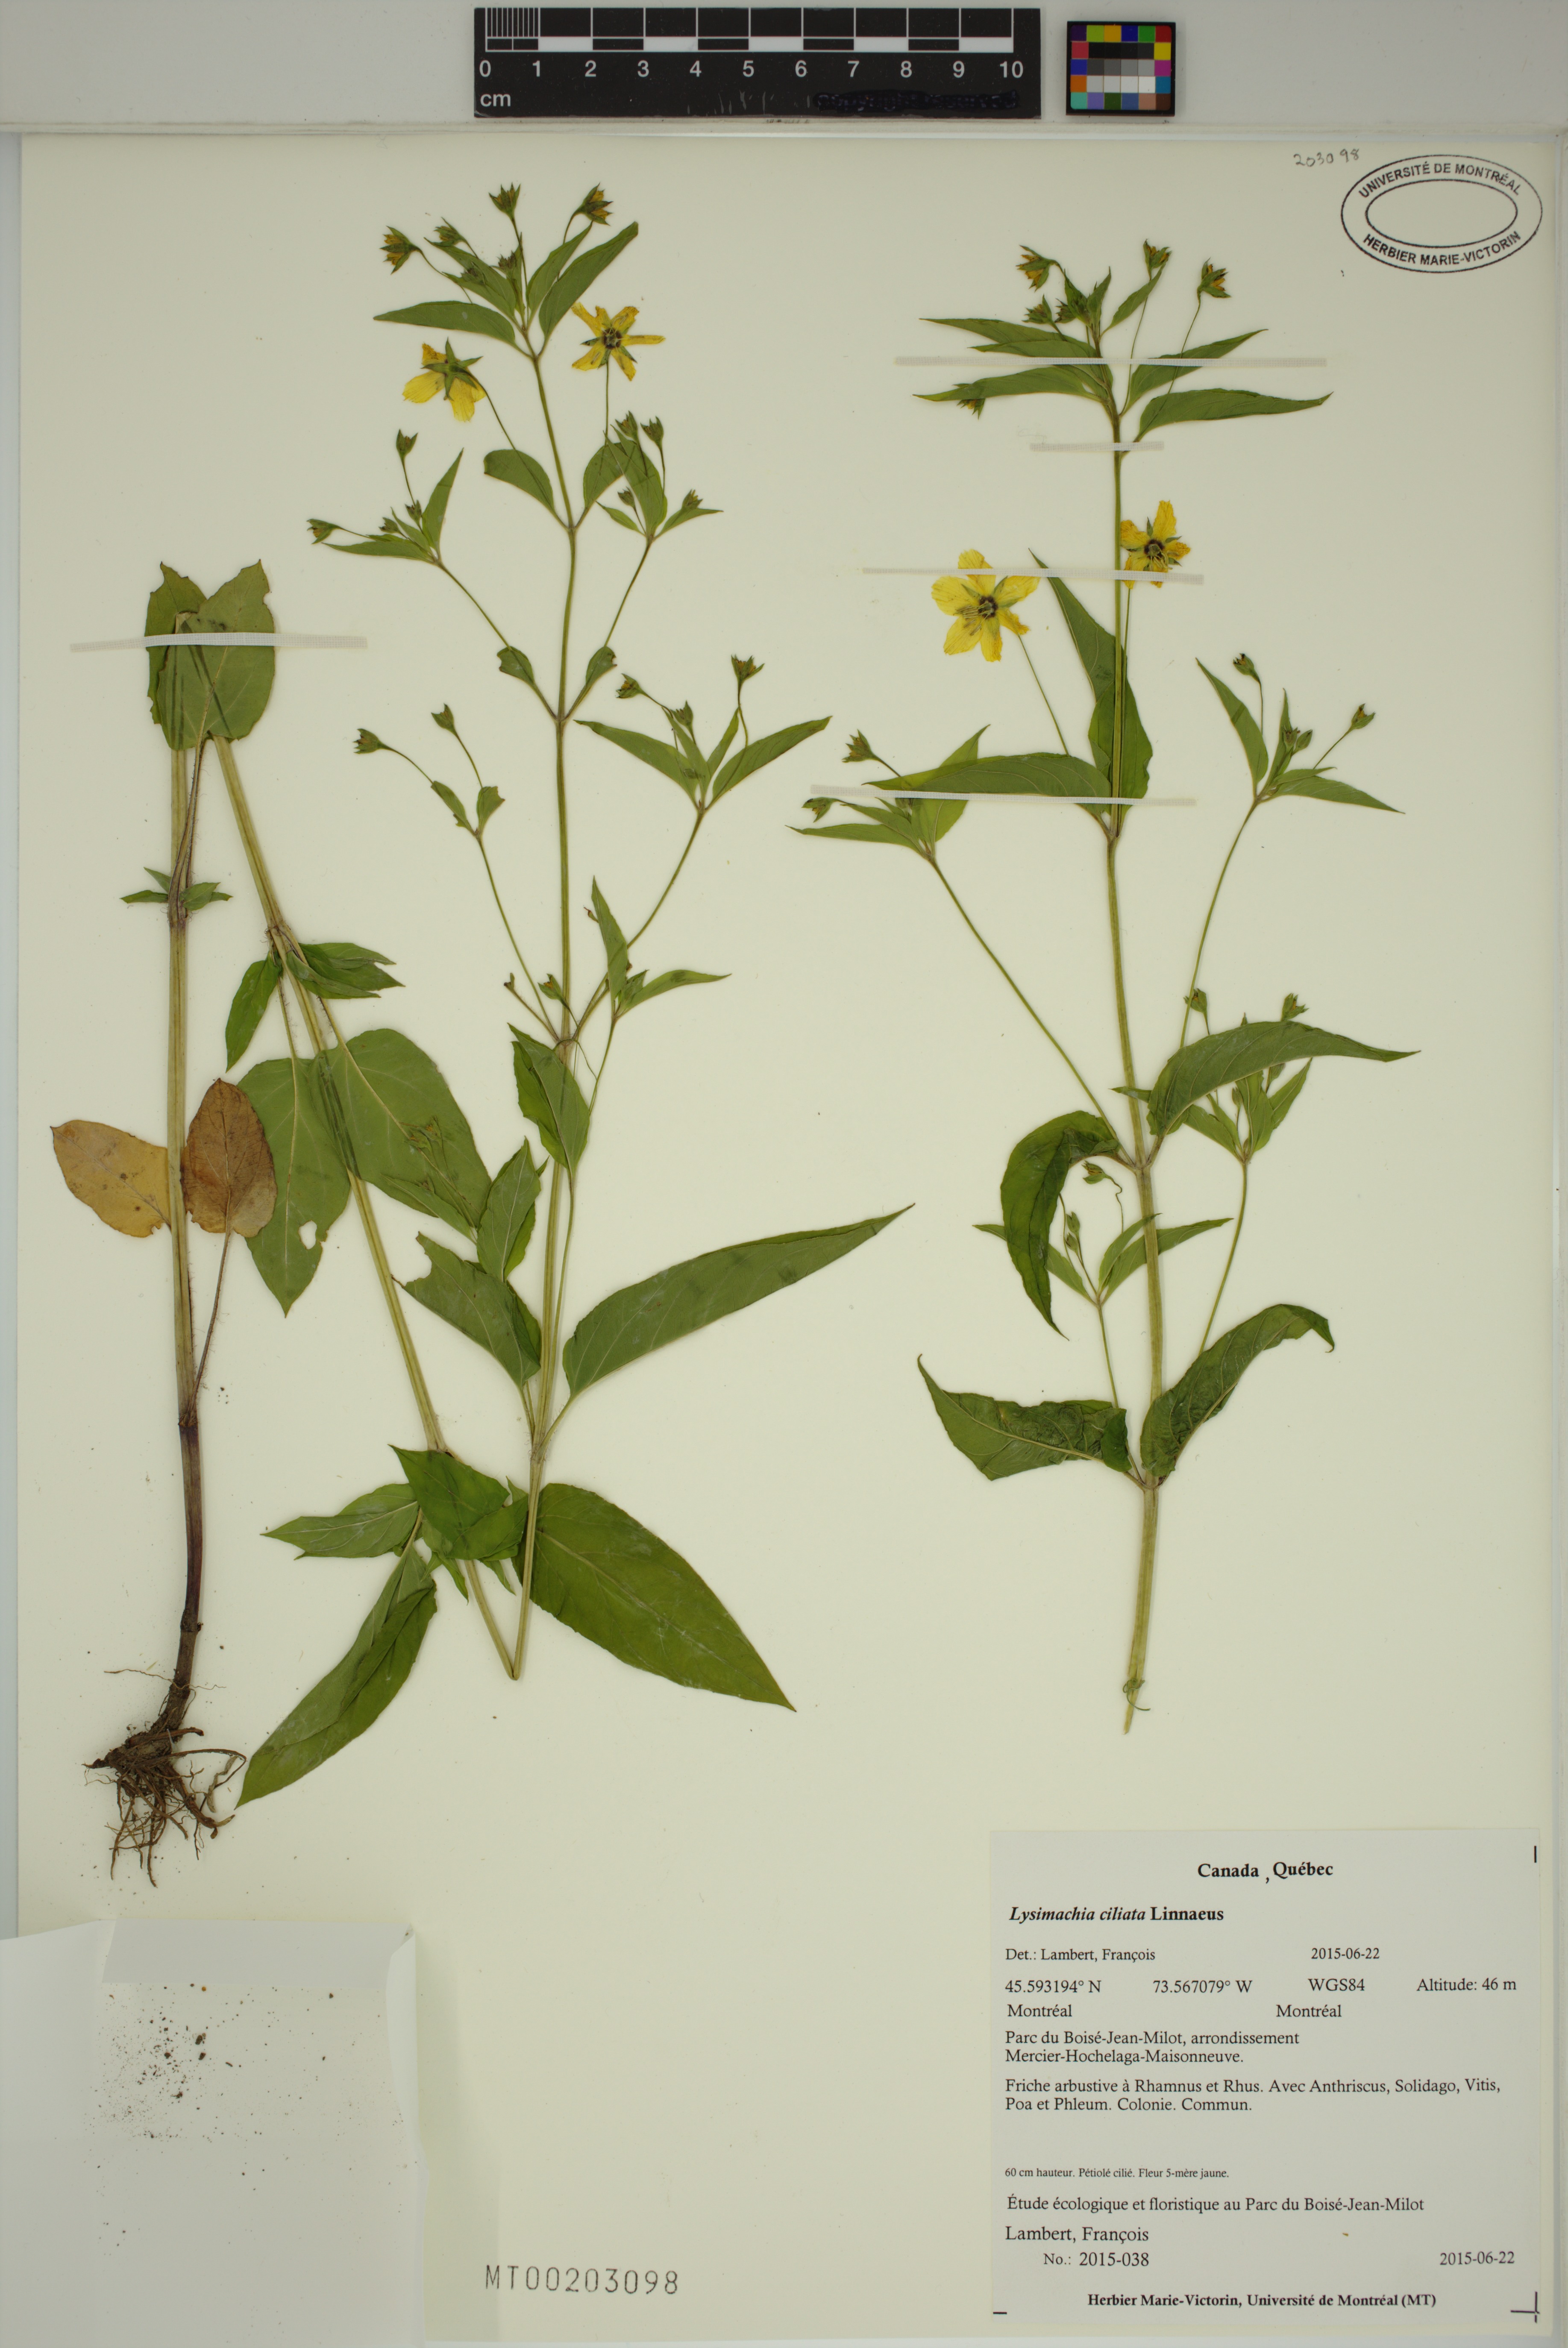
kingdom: Plantae
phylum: Tracheophyta
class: Magnoliopsida
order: Ericales
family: Primulaceae
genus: Lysimachia
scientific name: Lysimachia ciliata
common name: Fringed loosestrife
